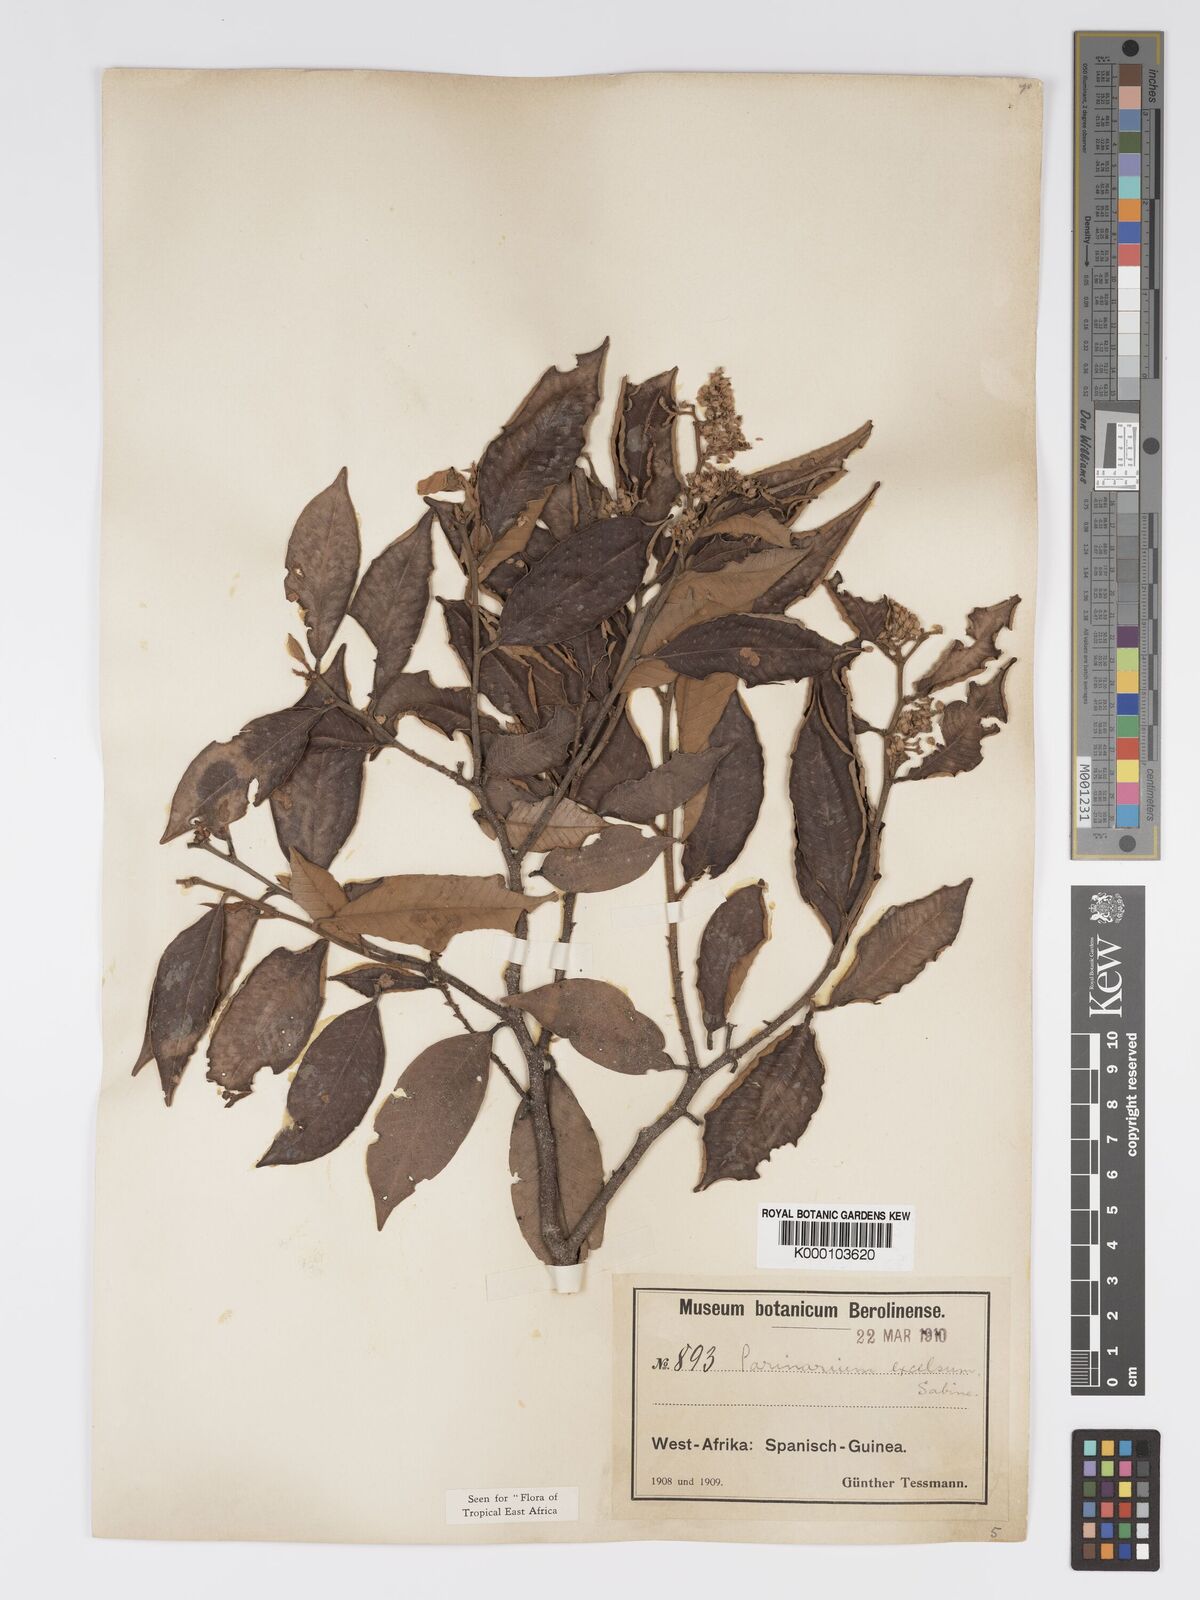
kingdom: Plantae
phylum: Tracheophyta
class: Magnoliopsida
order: Malpighiales
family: Chrysobalanaceae
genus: Parinari
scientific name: Parinari excelsa
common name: Guinea-plum
